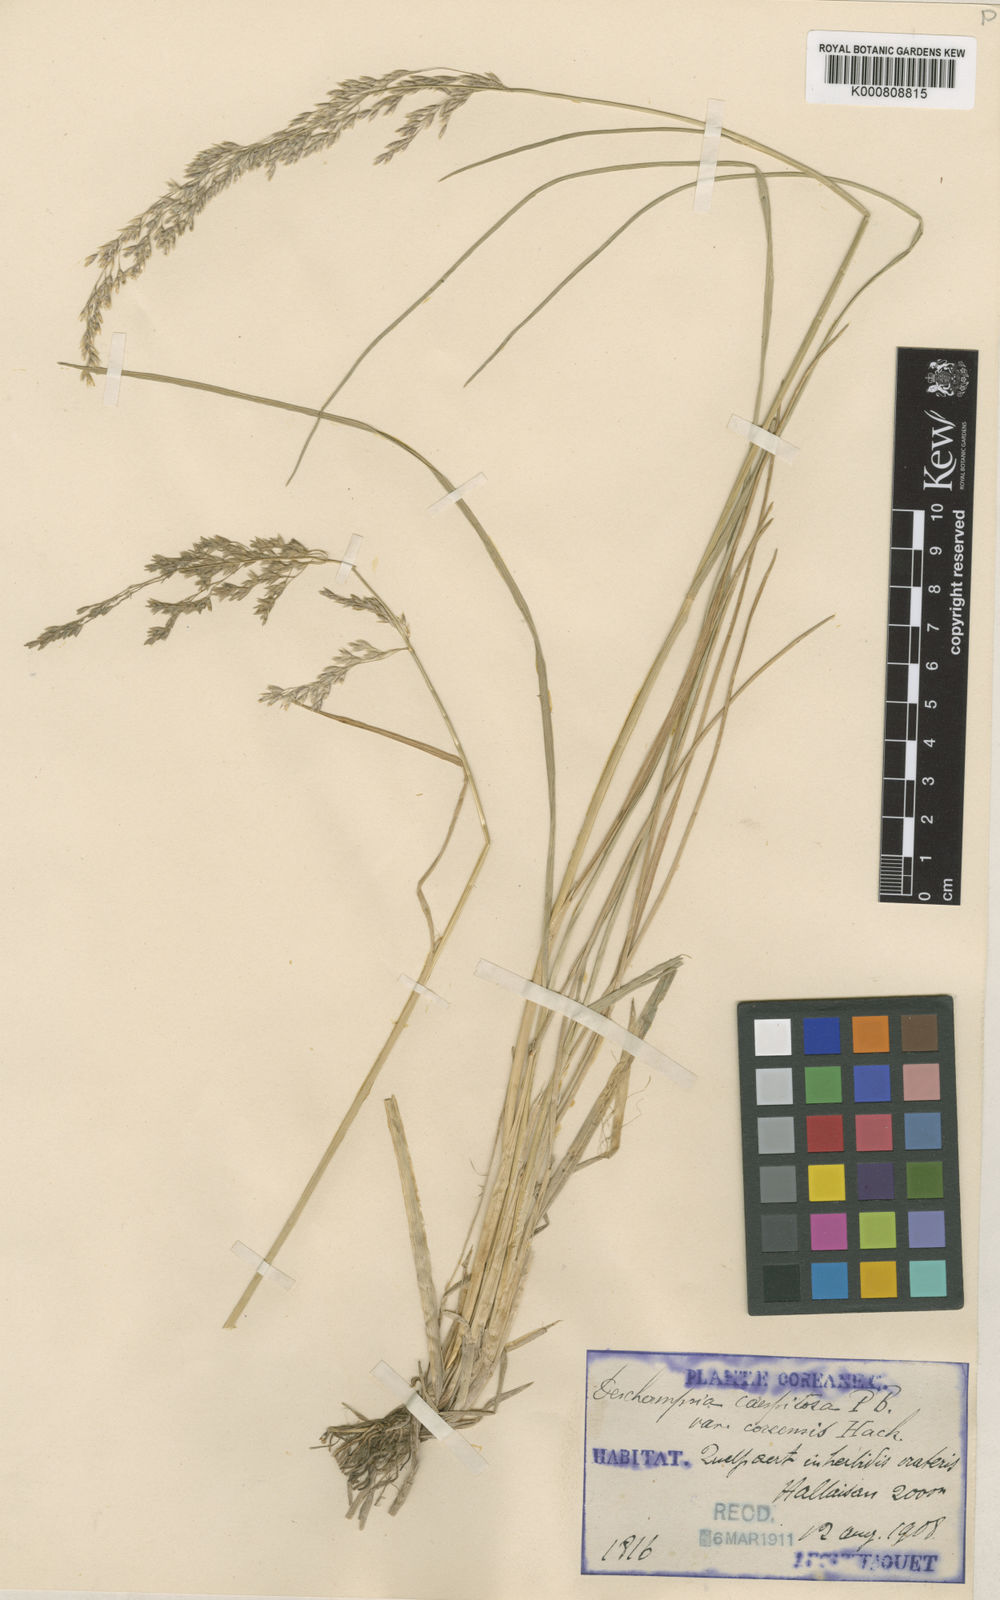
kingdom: Plantae
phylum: Tracheophyta
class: Liliopsida
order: Poales
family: Poaceae
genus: Deschampsia
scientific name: Deschampsia
